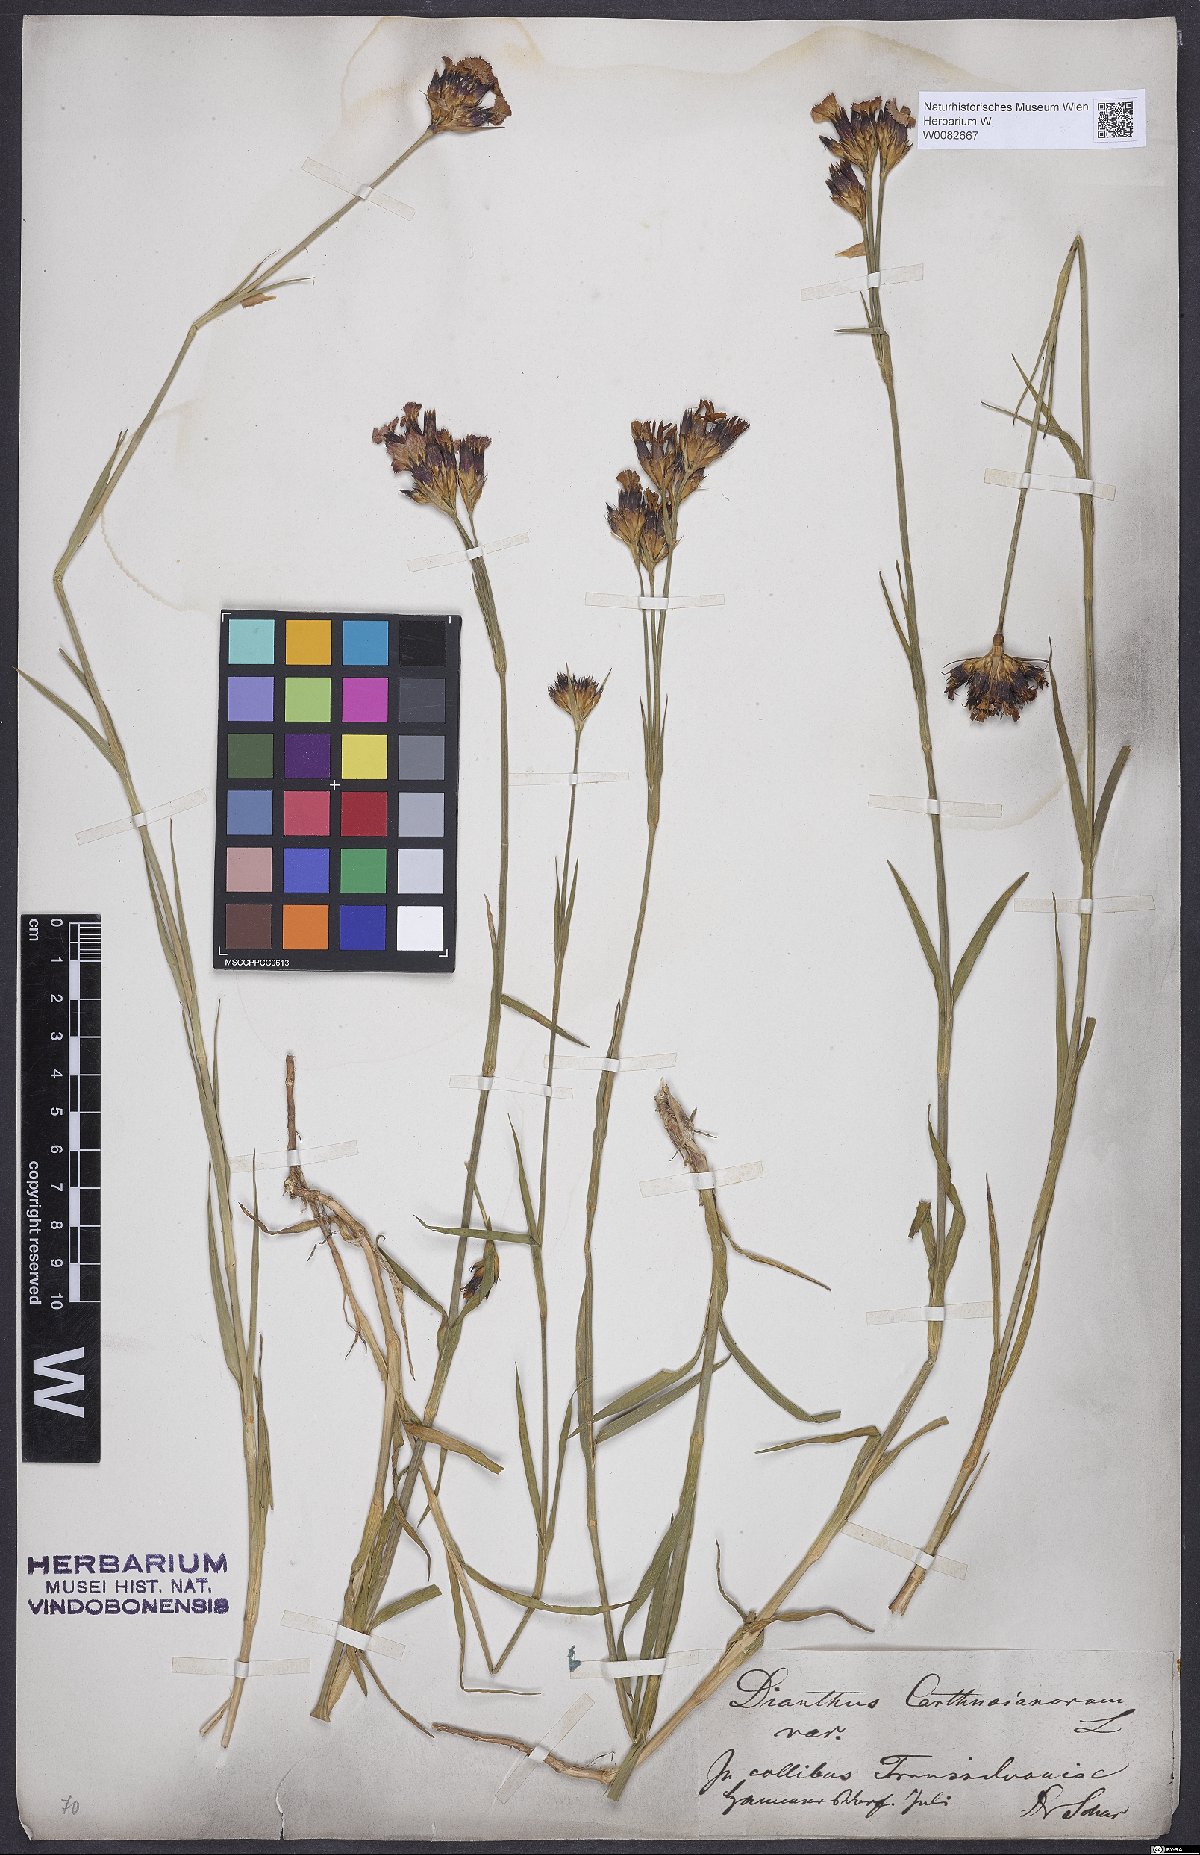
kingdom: Plantae
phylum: Tracheophyta
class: Magnoliopsida
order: Caryophyllales
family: Caryophyllaceae
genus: Dianthus
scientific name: Dianthus carthusianorum
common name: Carthusian pink
